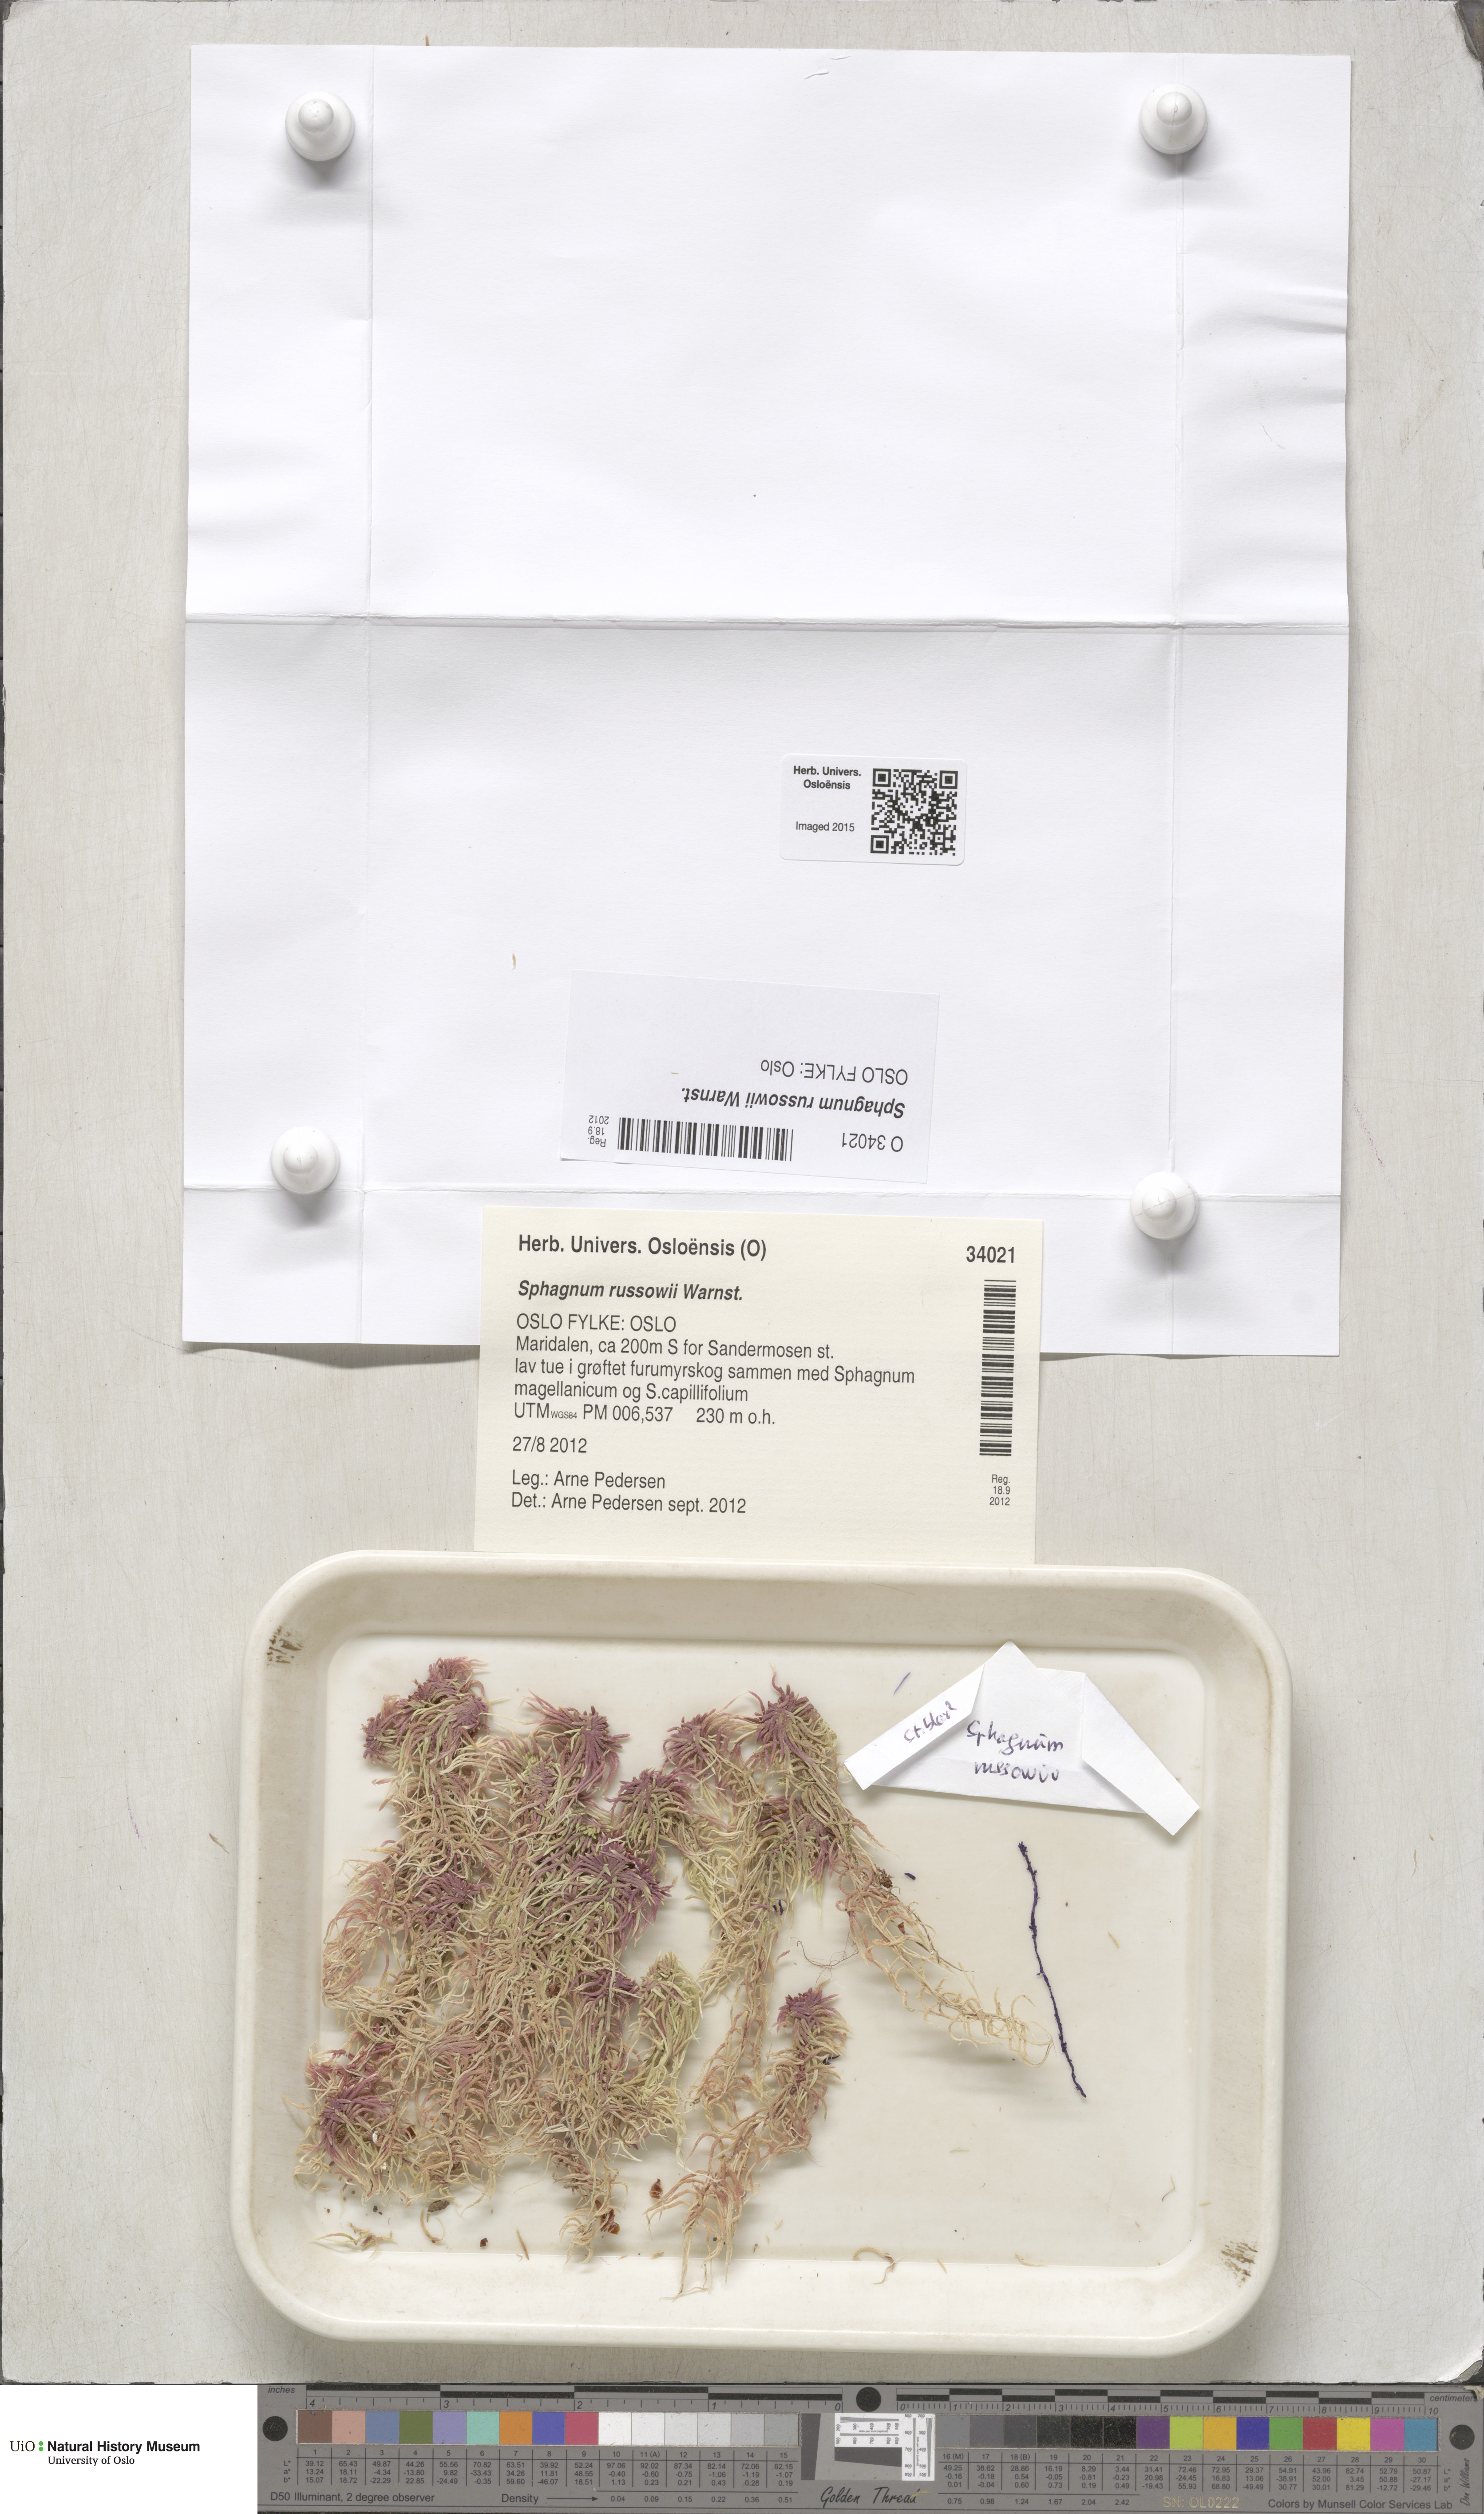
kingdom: Plantae
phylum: Bryophyta
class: Sphagnopsida
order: Sphagnales
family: Sphagnaceae
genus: Sphagnum
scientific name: Sphagnum russowii
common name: Russow's peat moss
